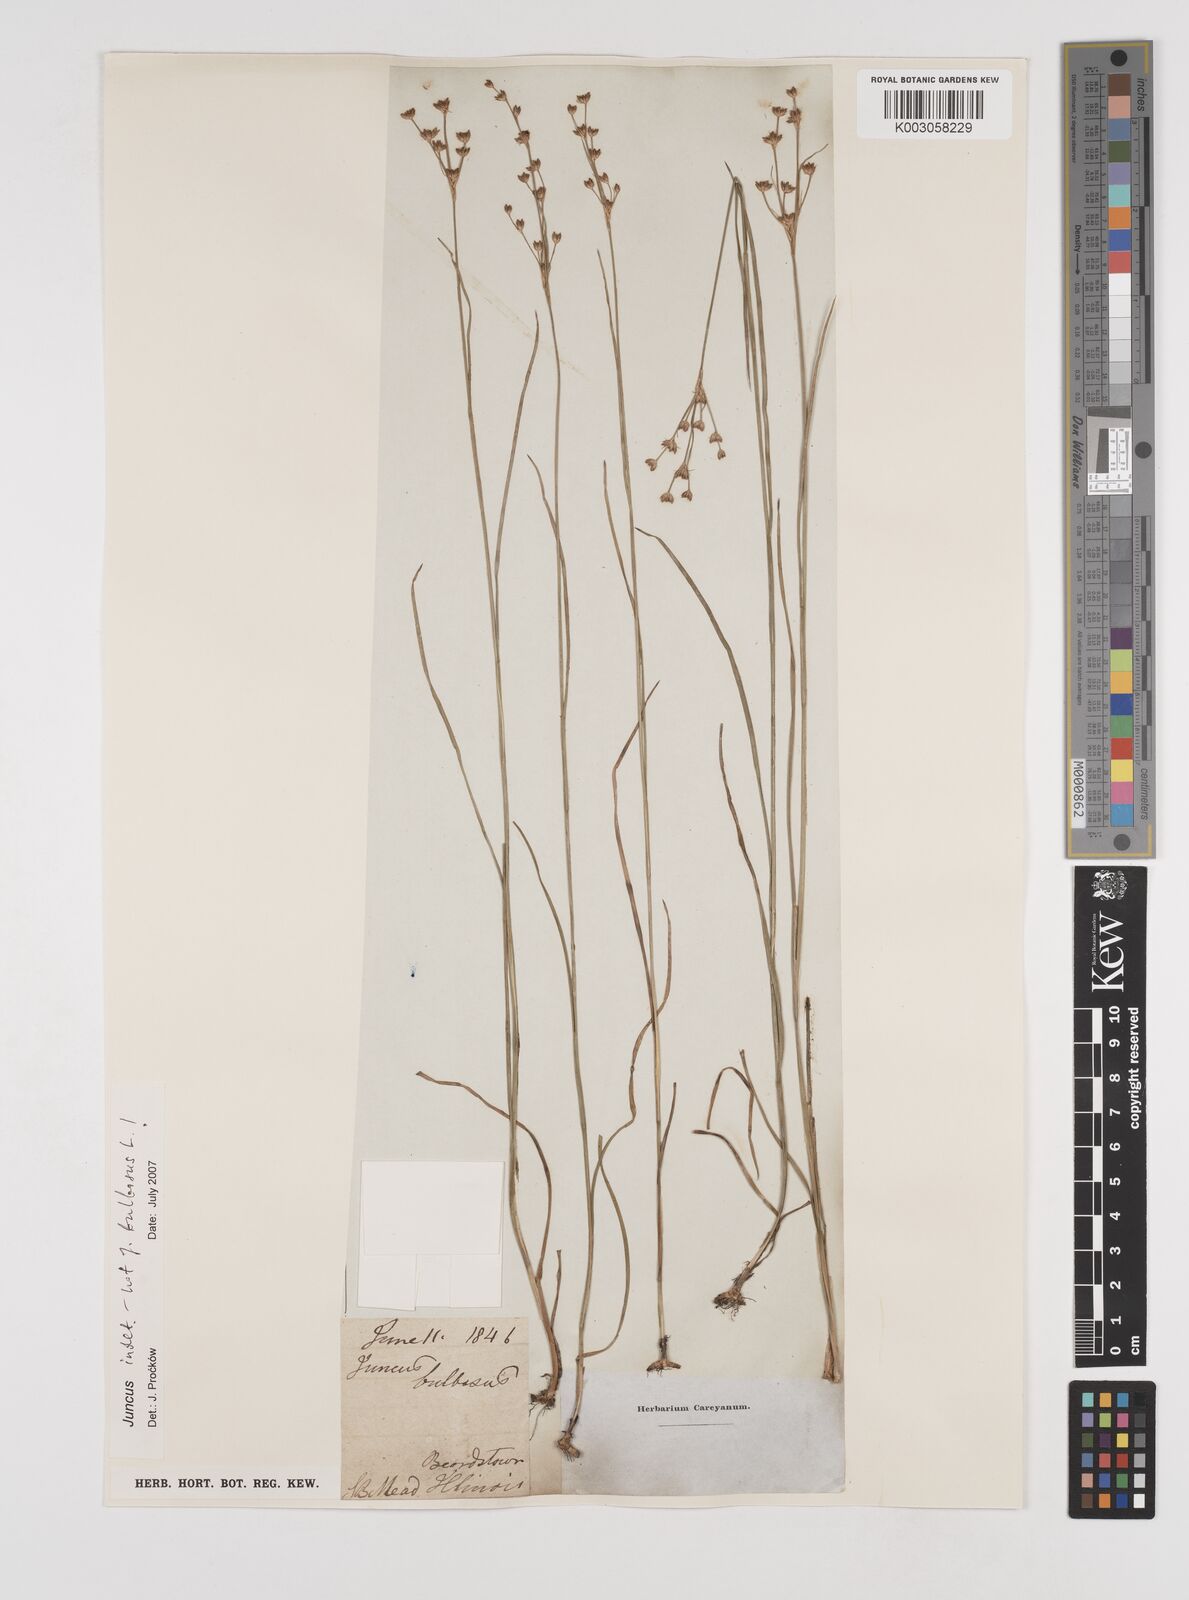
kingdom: Plantae
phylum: Tracheophyta
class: Liliopsida
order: Poales
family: Juncaceae
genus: Juncus
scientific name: Juncus
